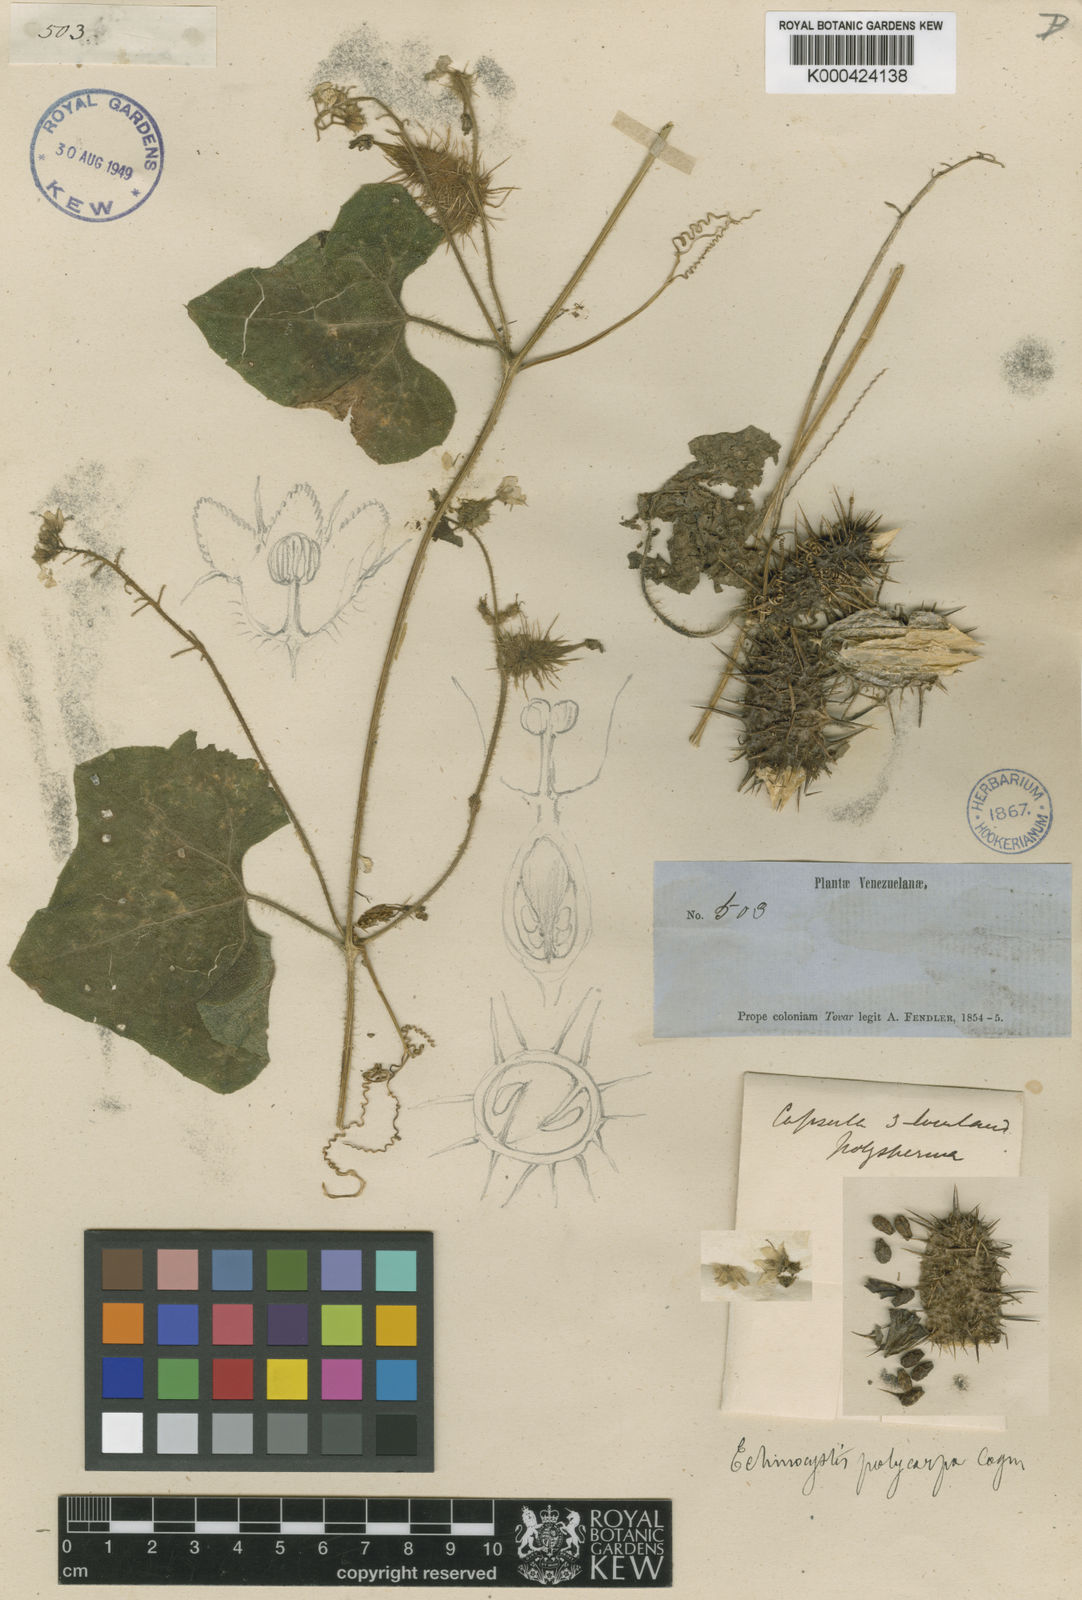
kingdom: Plantae
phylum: Tracheophyta
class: Magnoliopsida
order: Cucurbitales
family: Cucurbitaceae
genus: Echinopepon
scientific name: Echinopepon racemosus
